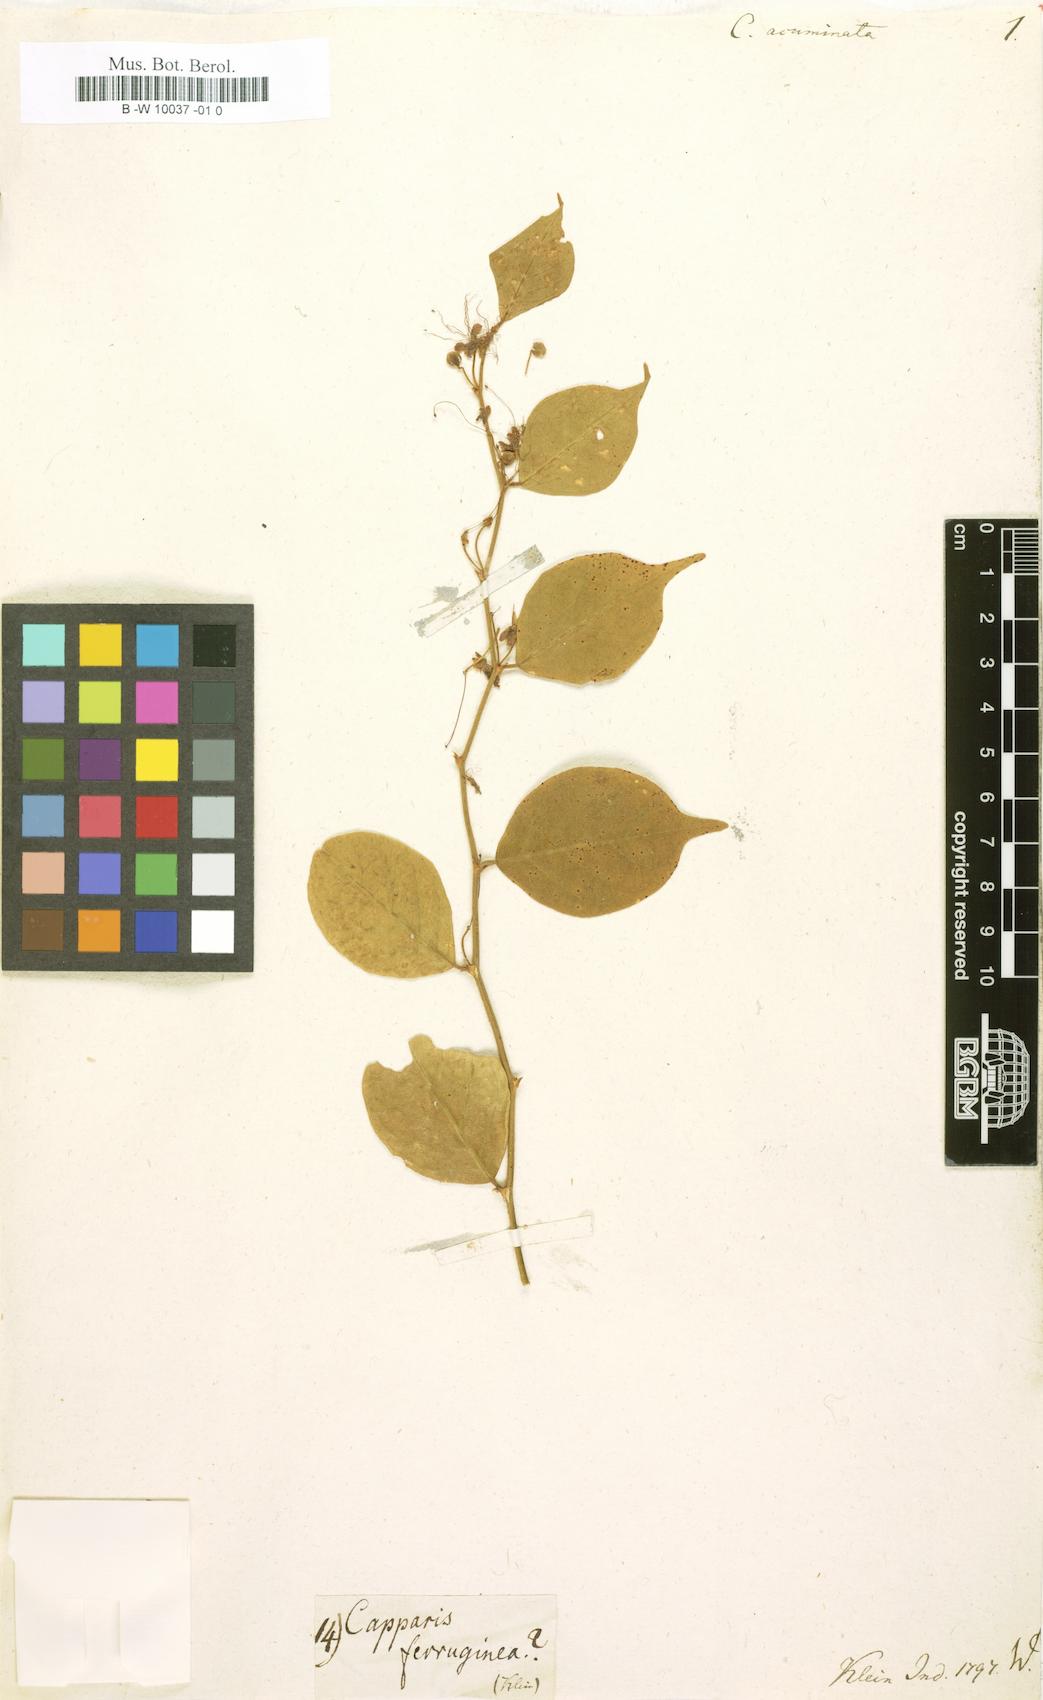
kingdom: Plantae
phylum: Tracheophyta
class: Magnoliopsida
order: Brassicales
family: Capparaceae
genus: Capparis
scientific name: Capparis
